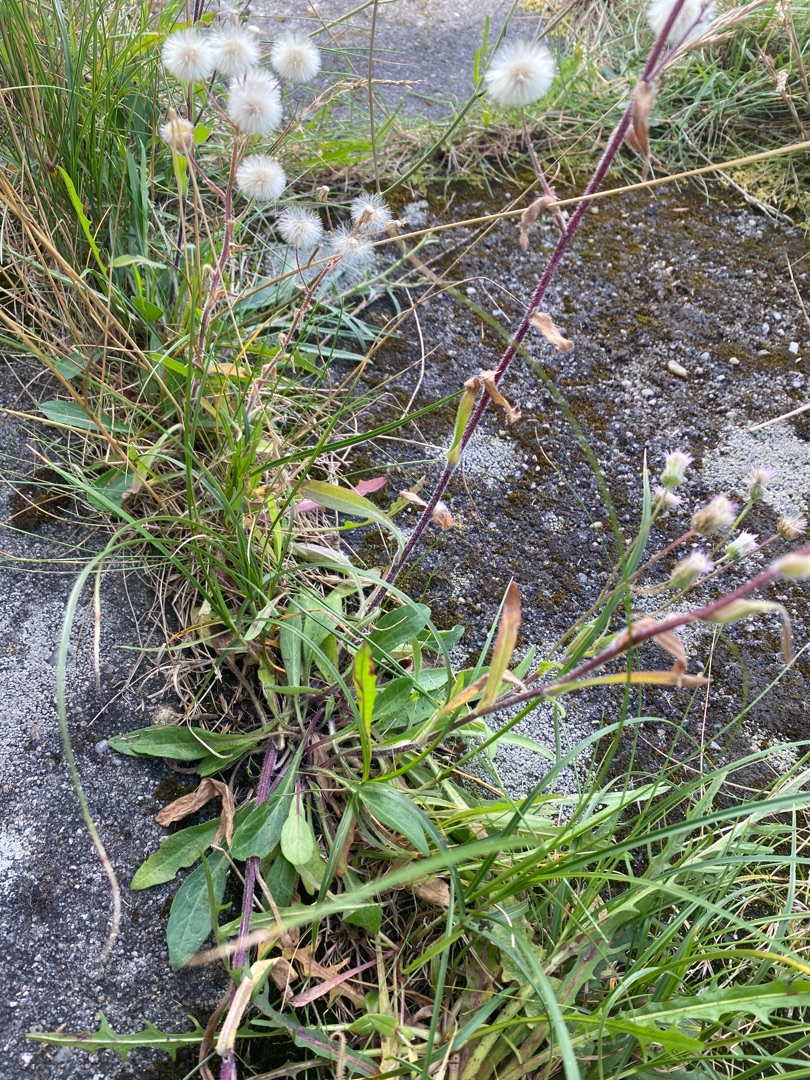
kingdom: Plantae
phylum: Tracheophyta
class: Magnoliopsida
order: Asterales
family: Asteraceae
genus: Erigeron
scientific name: Erigeron acris
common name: Bitter bakkestjerne
